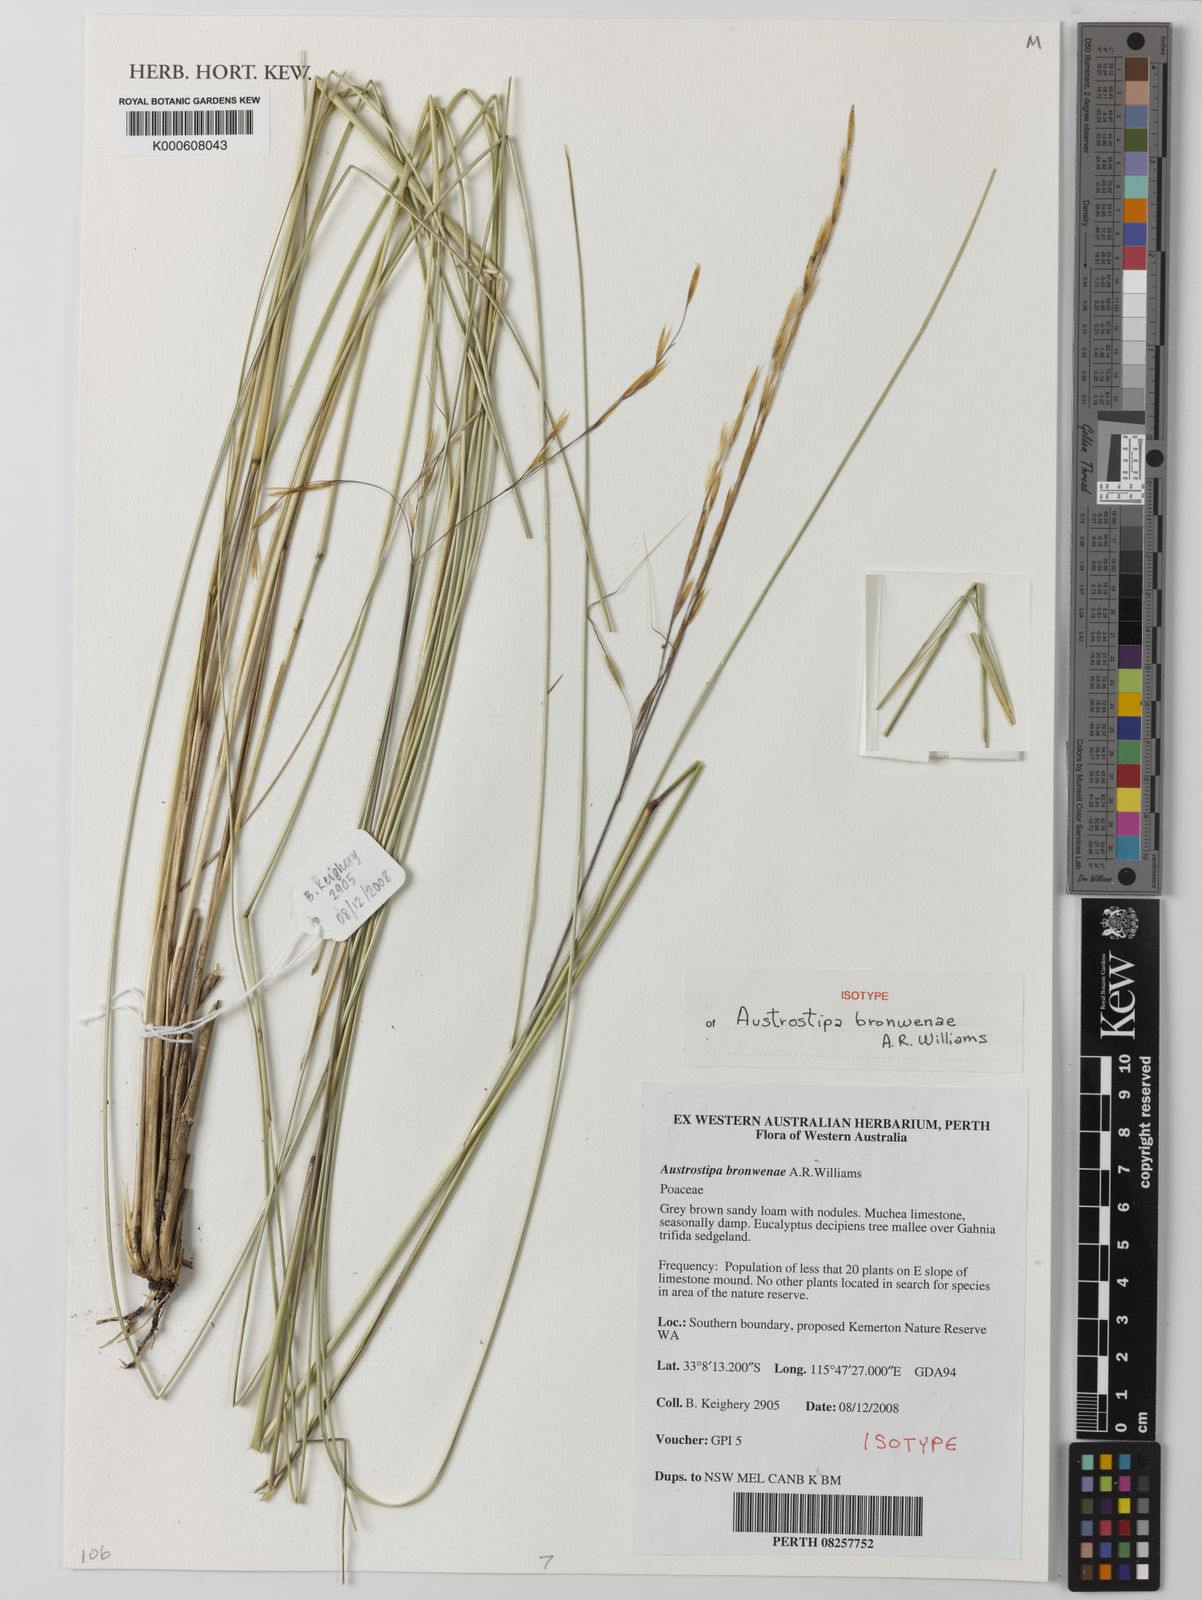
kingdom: Plantae
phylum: Tracheophyta
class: Liliopsida
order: Poales
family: Poaceae
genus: Austrostipa
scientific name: Austrostipa bronwenae
